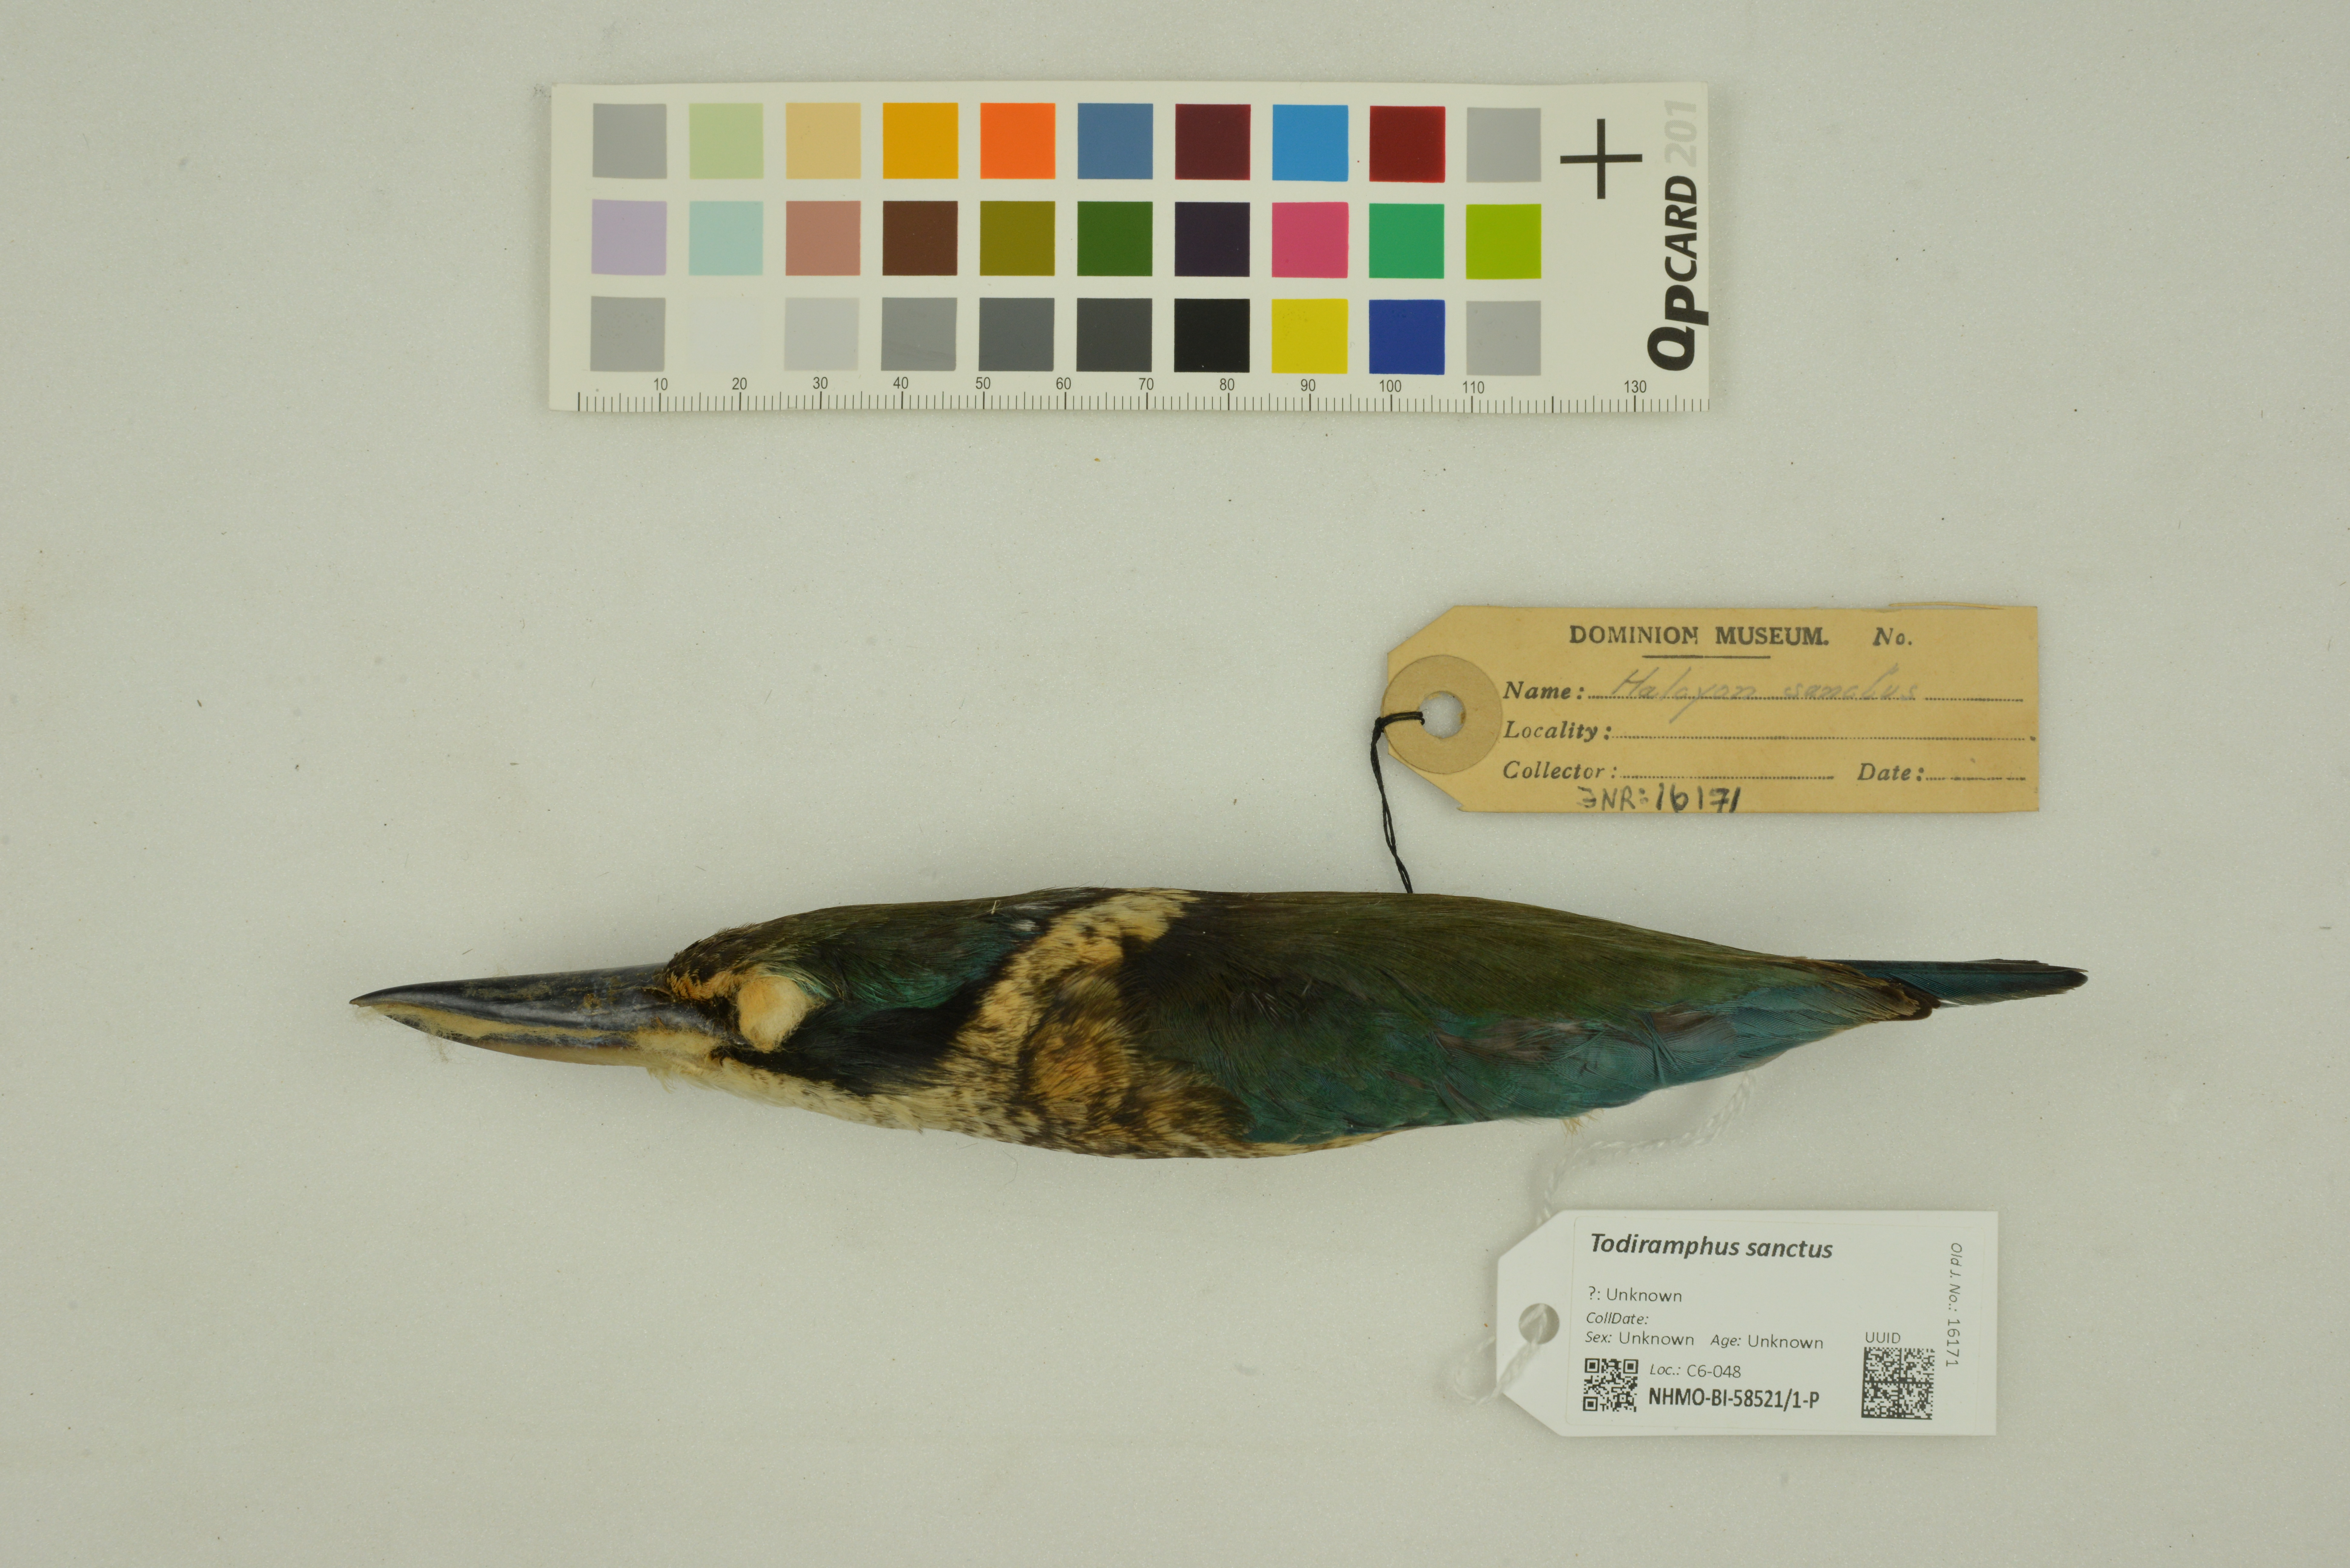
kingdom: Animalia
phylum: Chordata
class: Aves
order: Coraciiformes
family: Alcedinidae
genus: Todiramphus
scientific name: Todiramphus sanctus
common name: Sacred kingfisher
